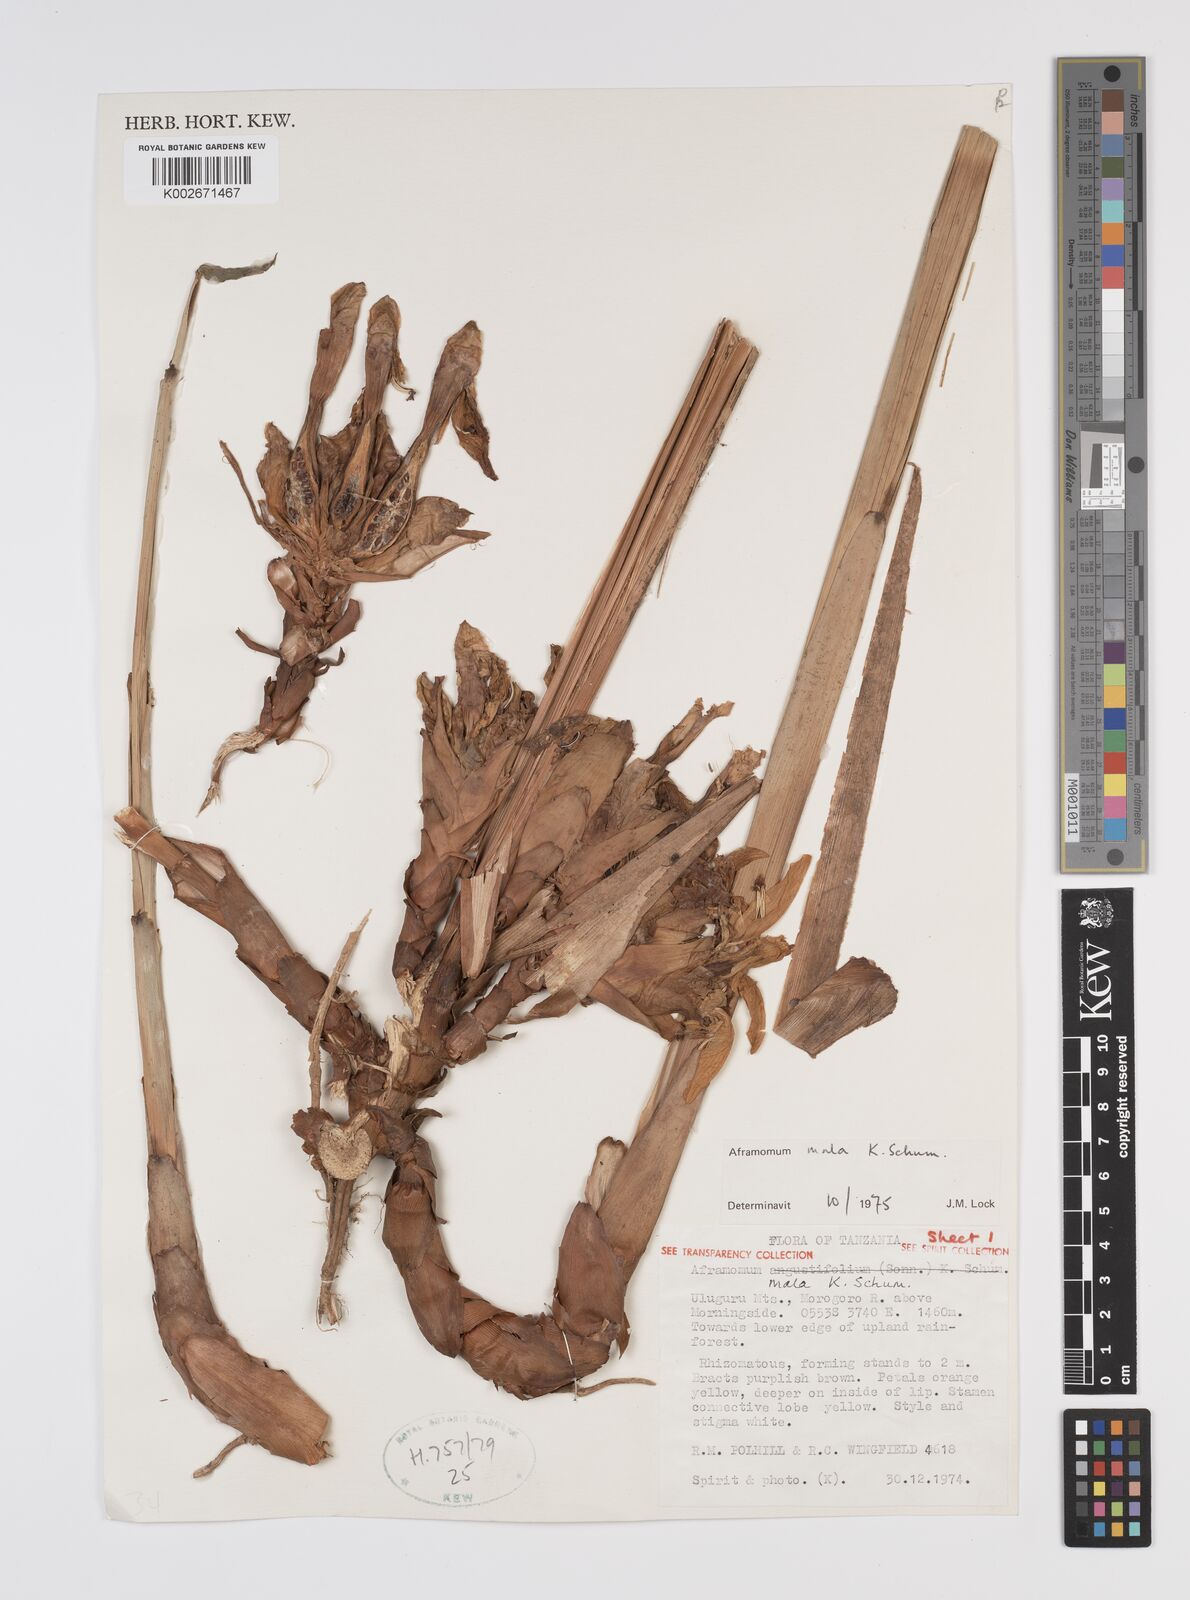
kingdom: Plantae
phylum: Tracheophyta
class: Liliopsida
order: Zingiberales
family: Zingiberaceae
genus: Aframomum
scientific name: Aframomum mala
